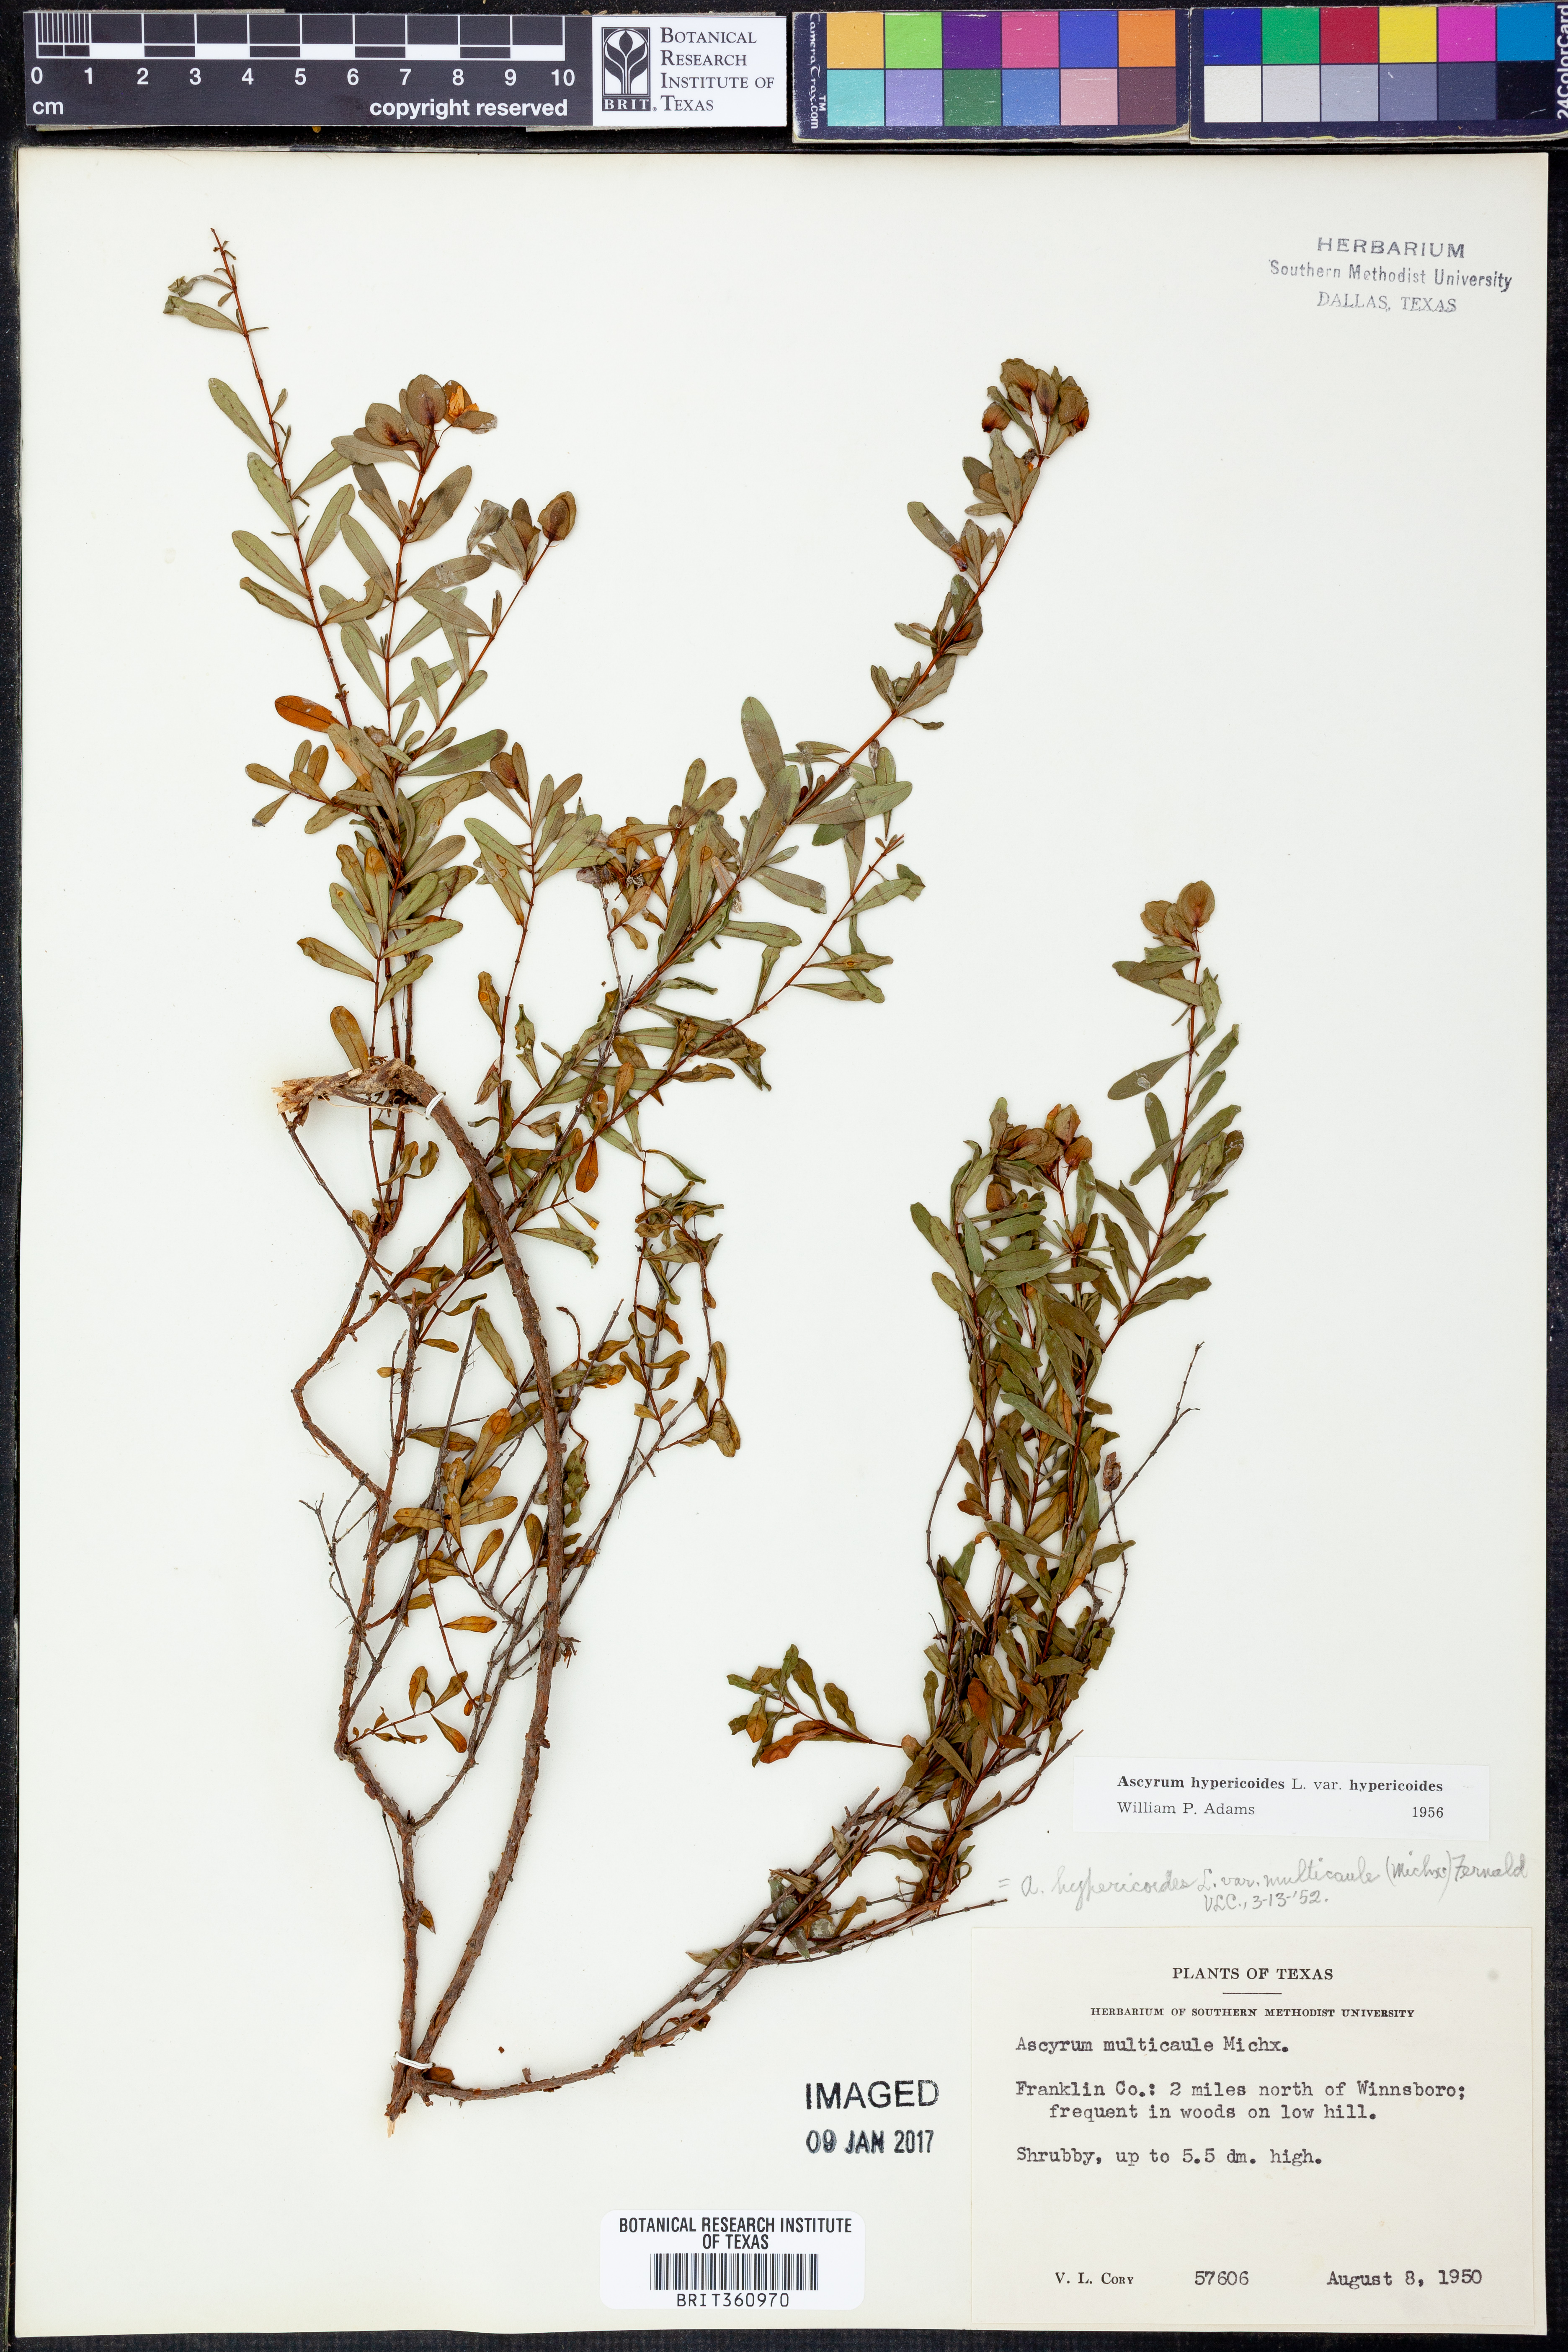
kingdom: Plantae
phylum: Tracheophyta
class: Magnoliopsida
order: Malpighiales
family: Hypericaceae
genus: Hypericum
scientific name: Hypericum hypericoides
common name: St. andrew's cross
